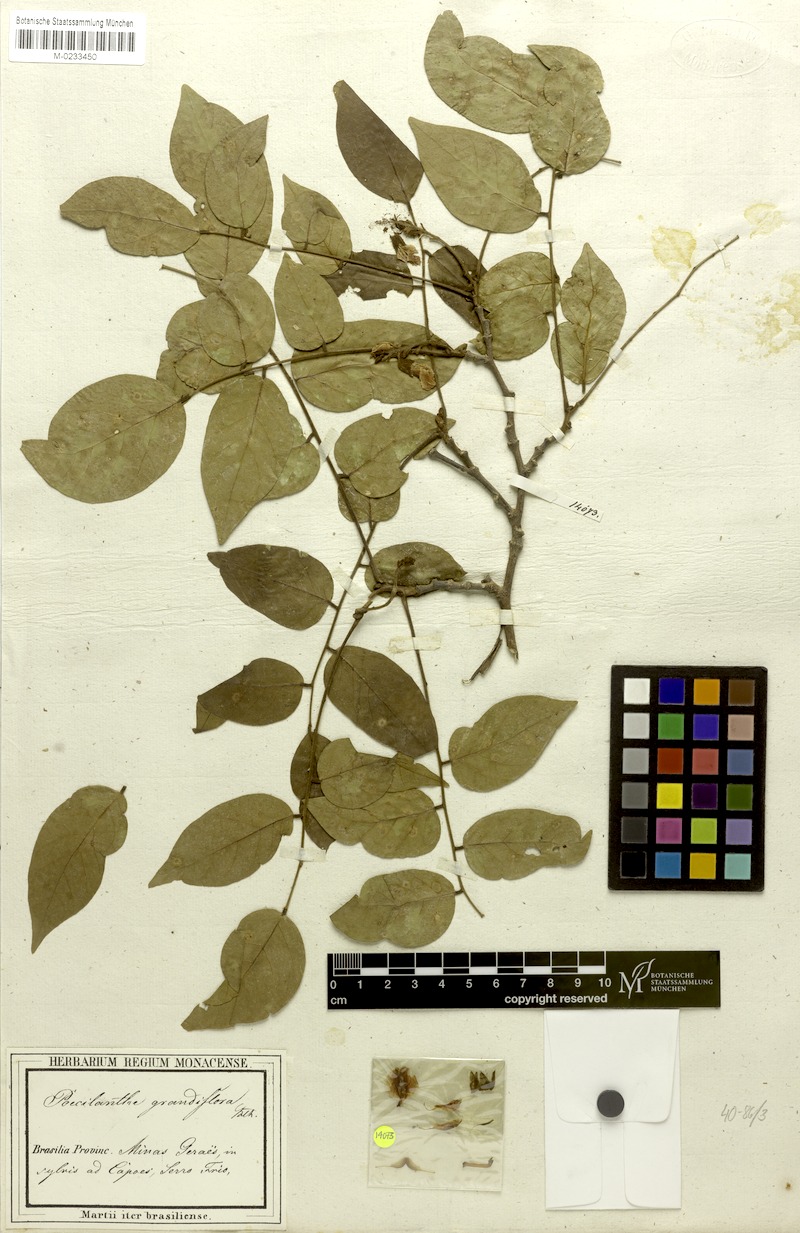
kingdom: Plantae
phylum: Tracheophyta
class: Magnoliopsida
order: Fabales
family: Fabaceae
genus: Poecilanthe
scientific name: Poecilanthe falcata
